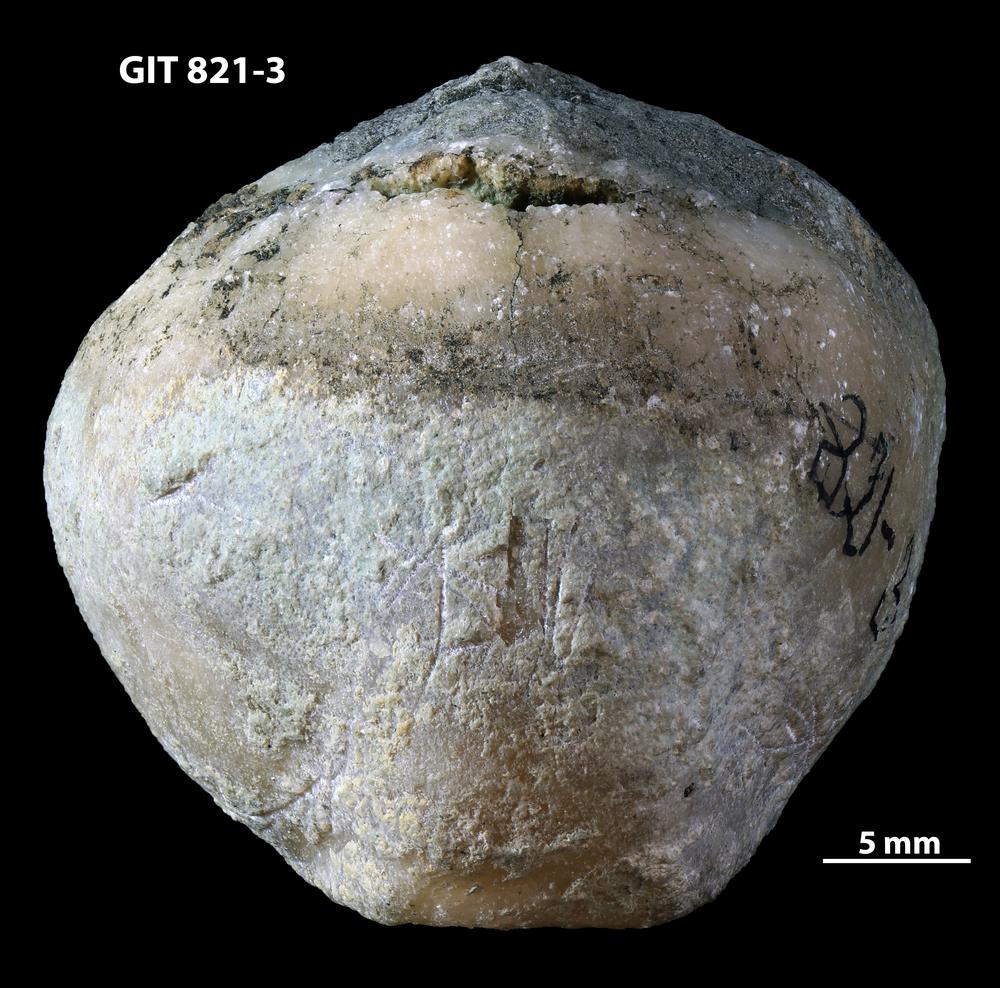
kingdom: Animalia
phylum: Brachiopoda
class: Rhynchonellata
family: Porambonitidae
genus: Eoporambonites
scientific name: Eoporambonites Porambonites latus
